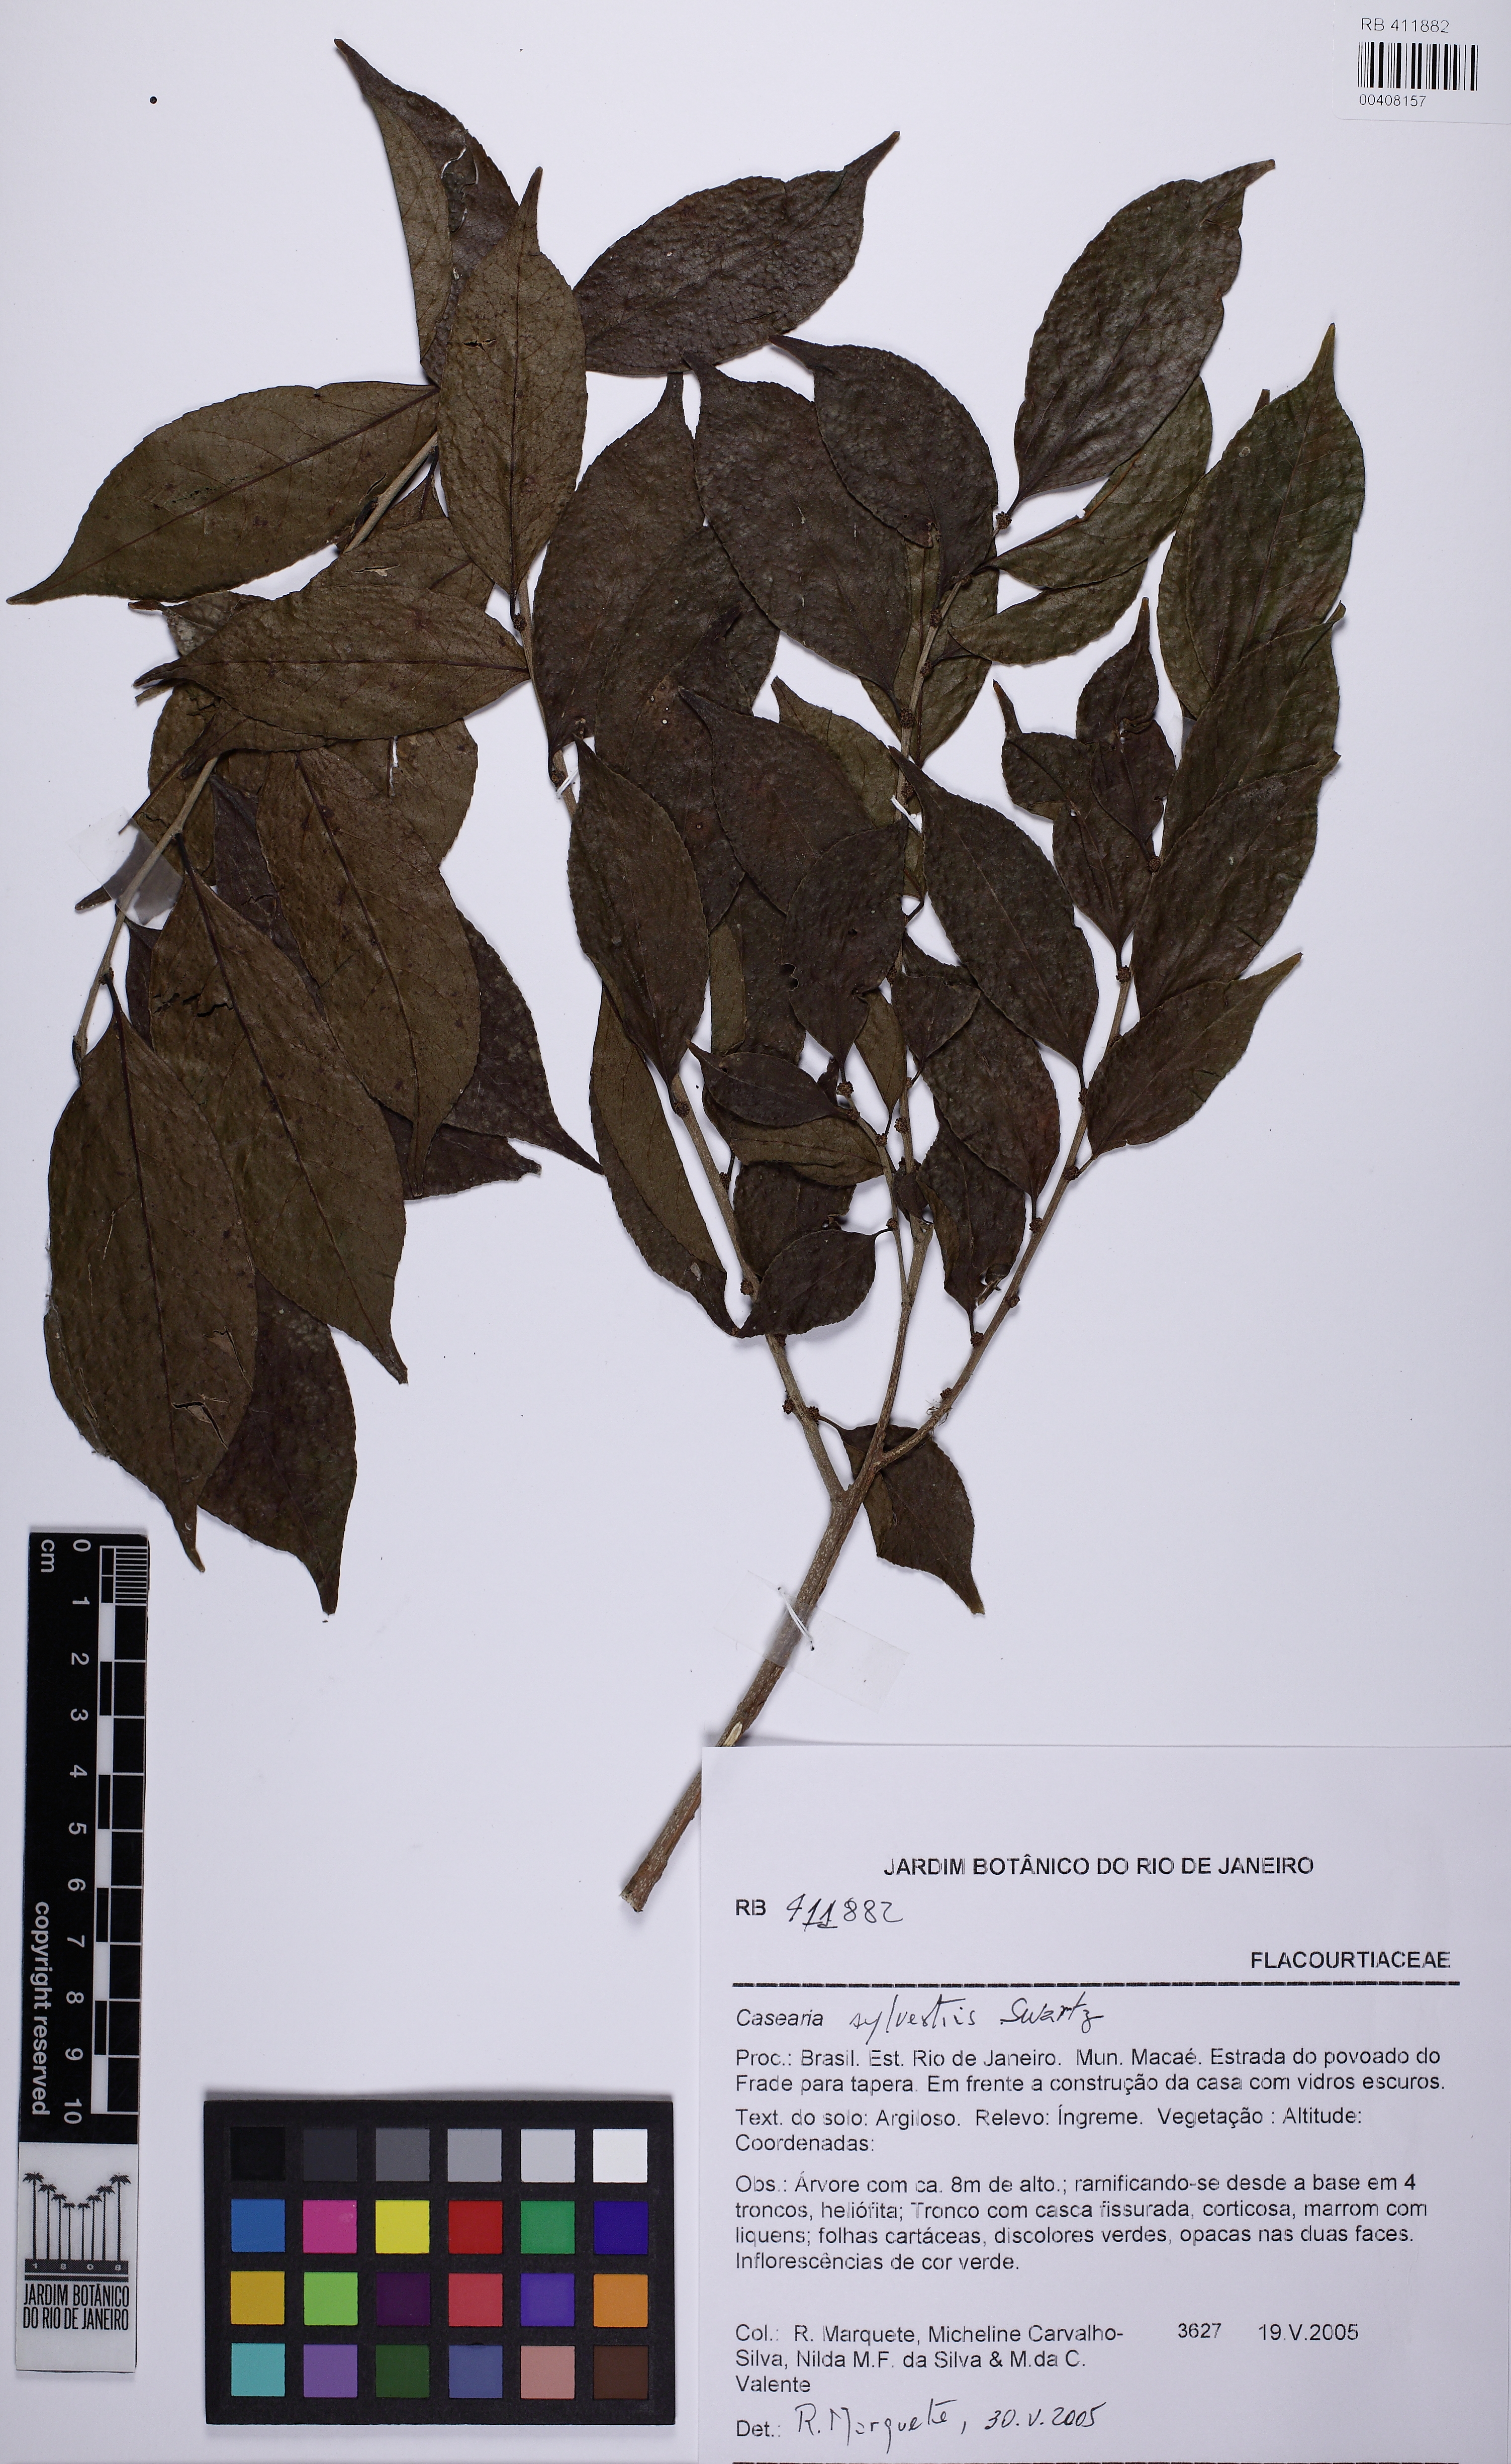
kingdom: Plantae
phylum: Tracheophyta
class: Magnoliopsida
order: Malpighiales
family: Salicaceae
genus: Casearia
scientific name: Casearia sylvestris
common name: Wild sage
